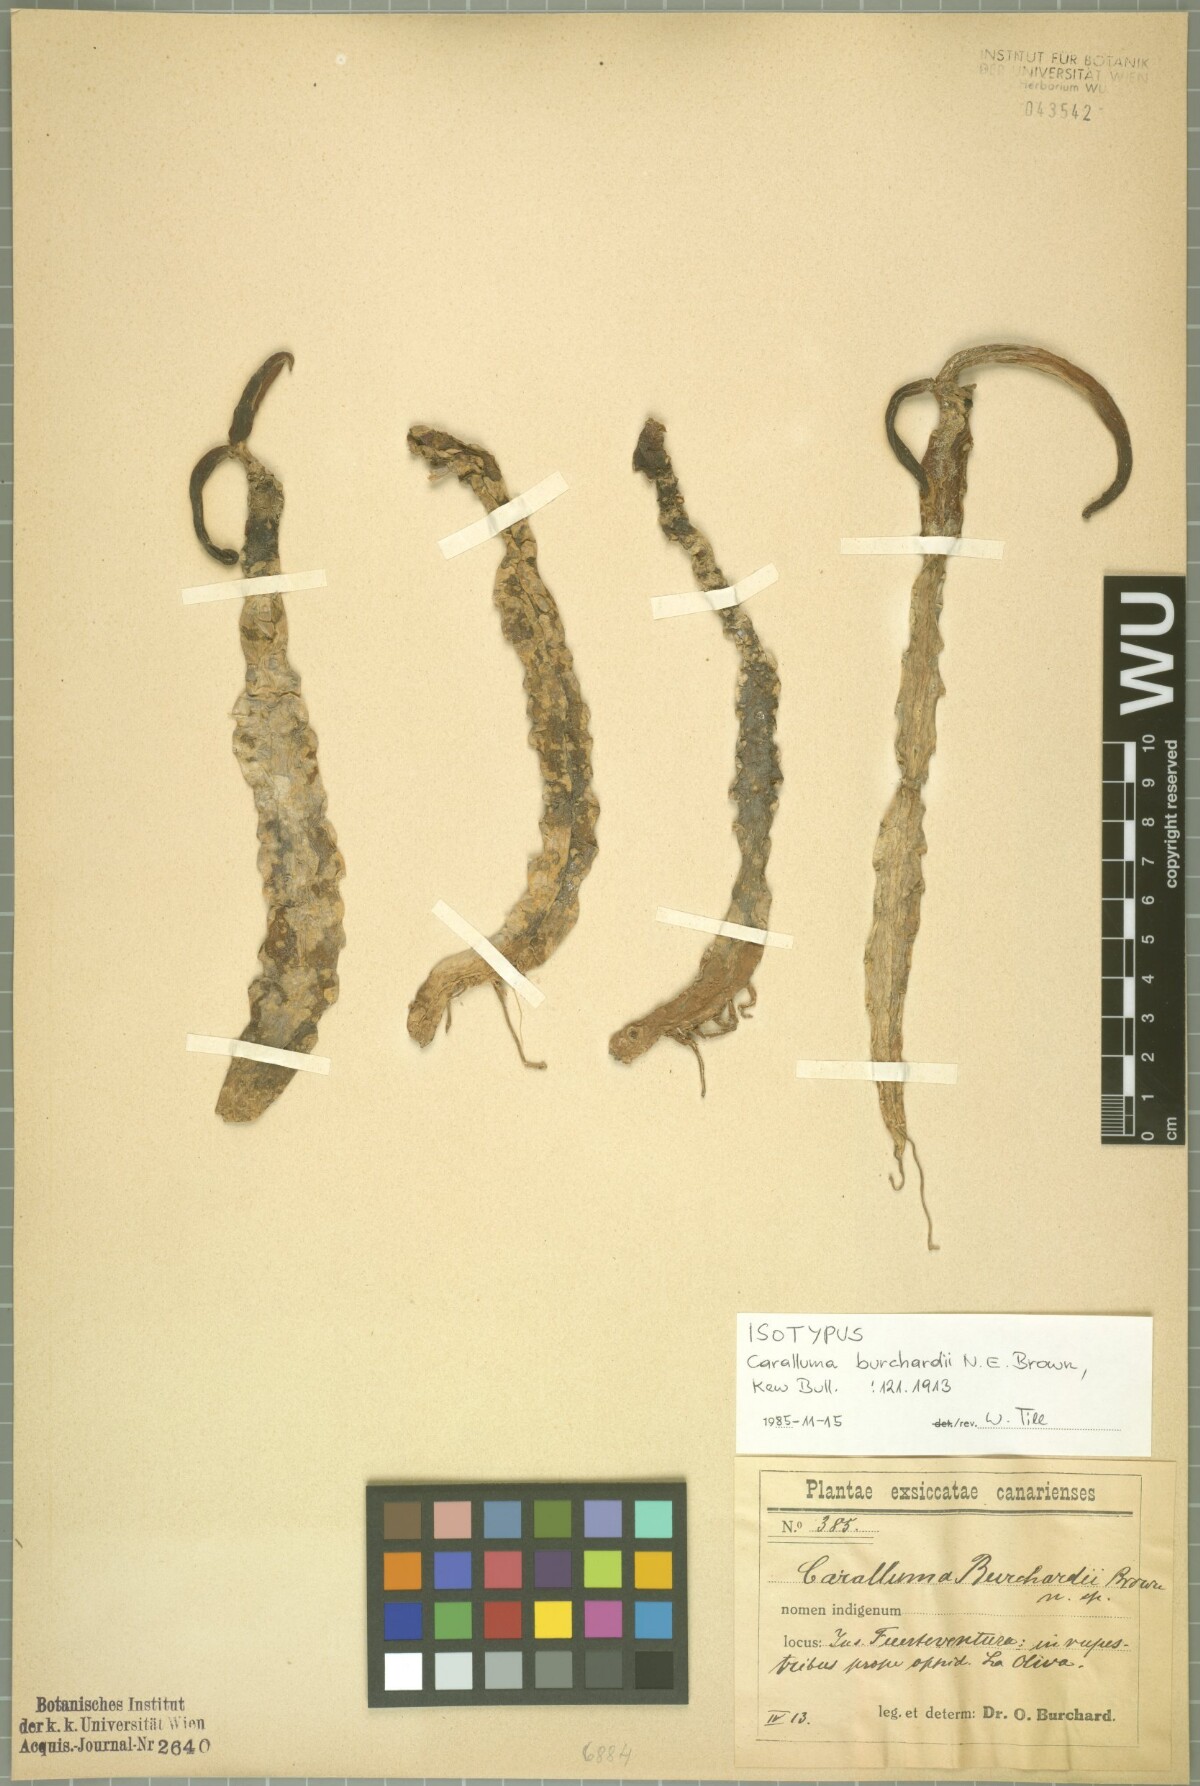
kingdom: Plantae
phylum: Tracheophyta
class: Magnoliopsida
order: Gentianales
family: Apocynaceae
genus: Ceropegia
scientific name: Ceropegia burchardii
